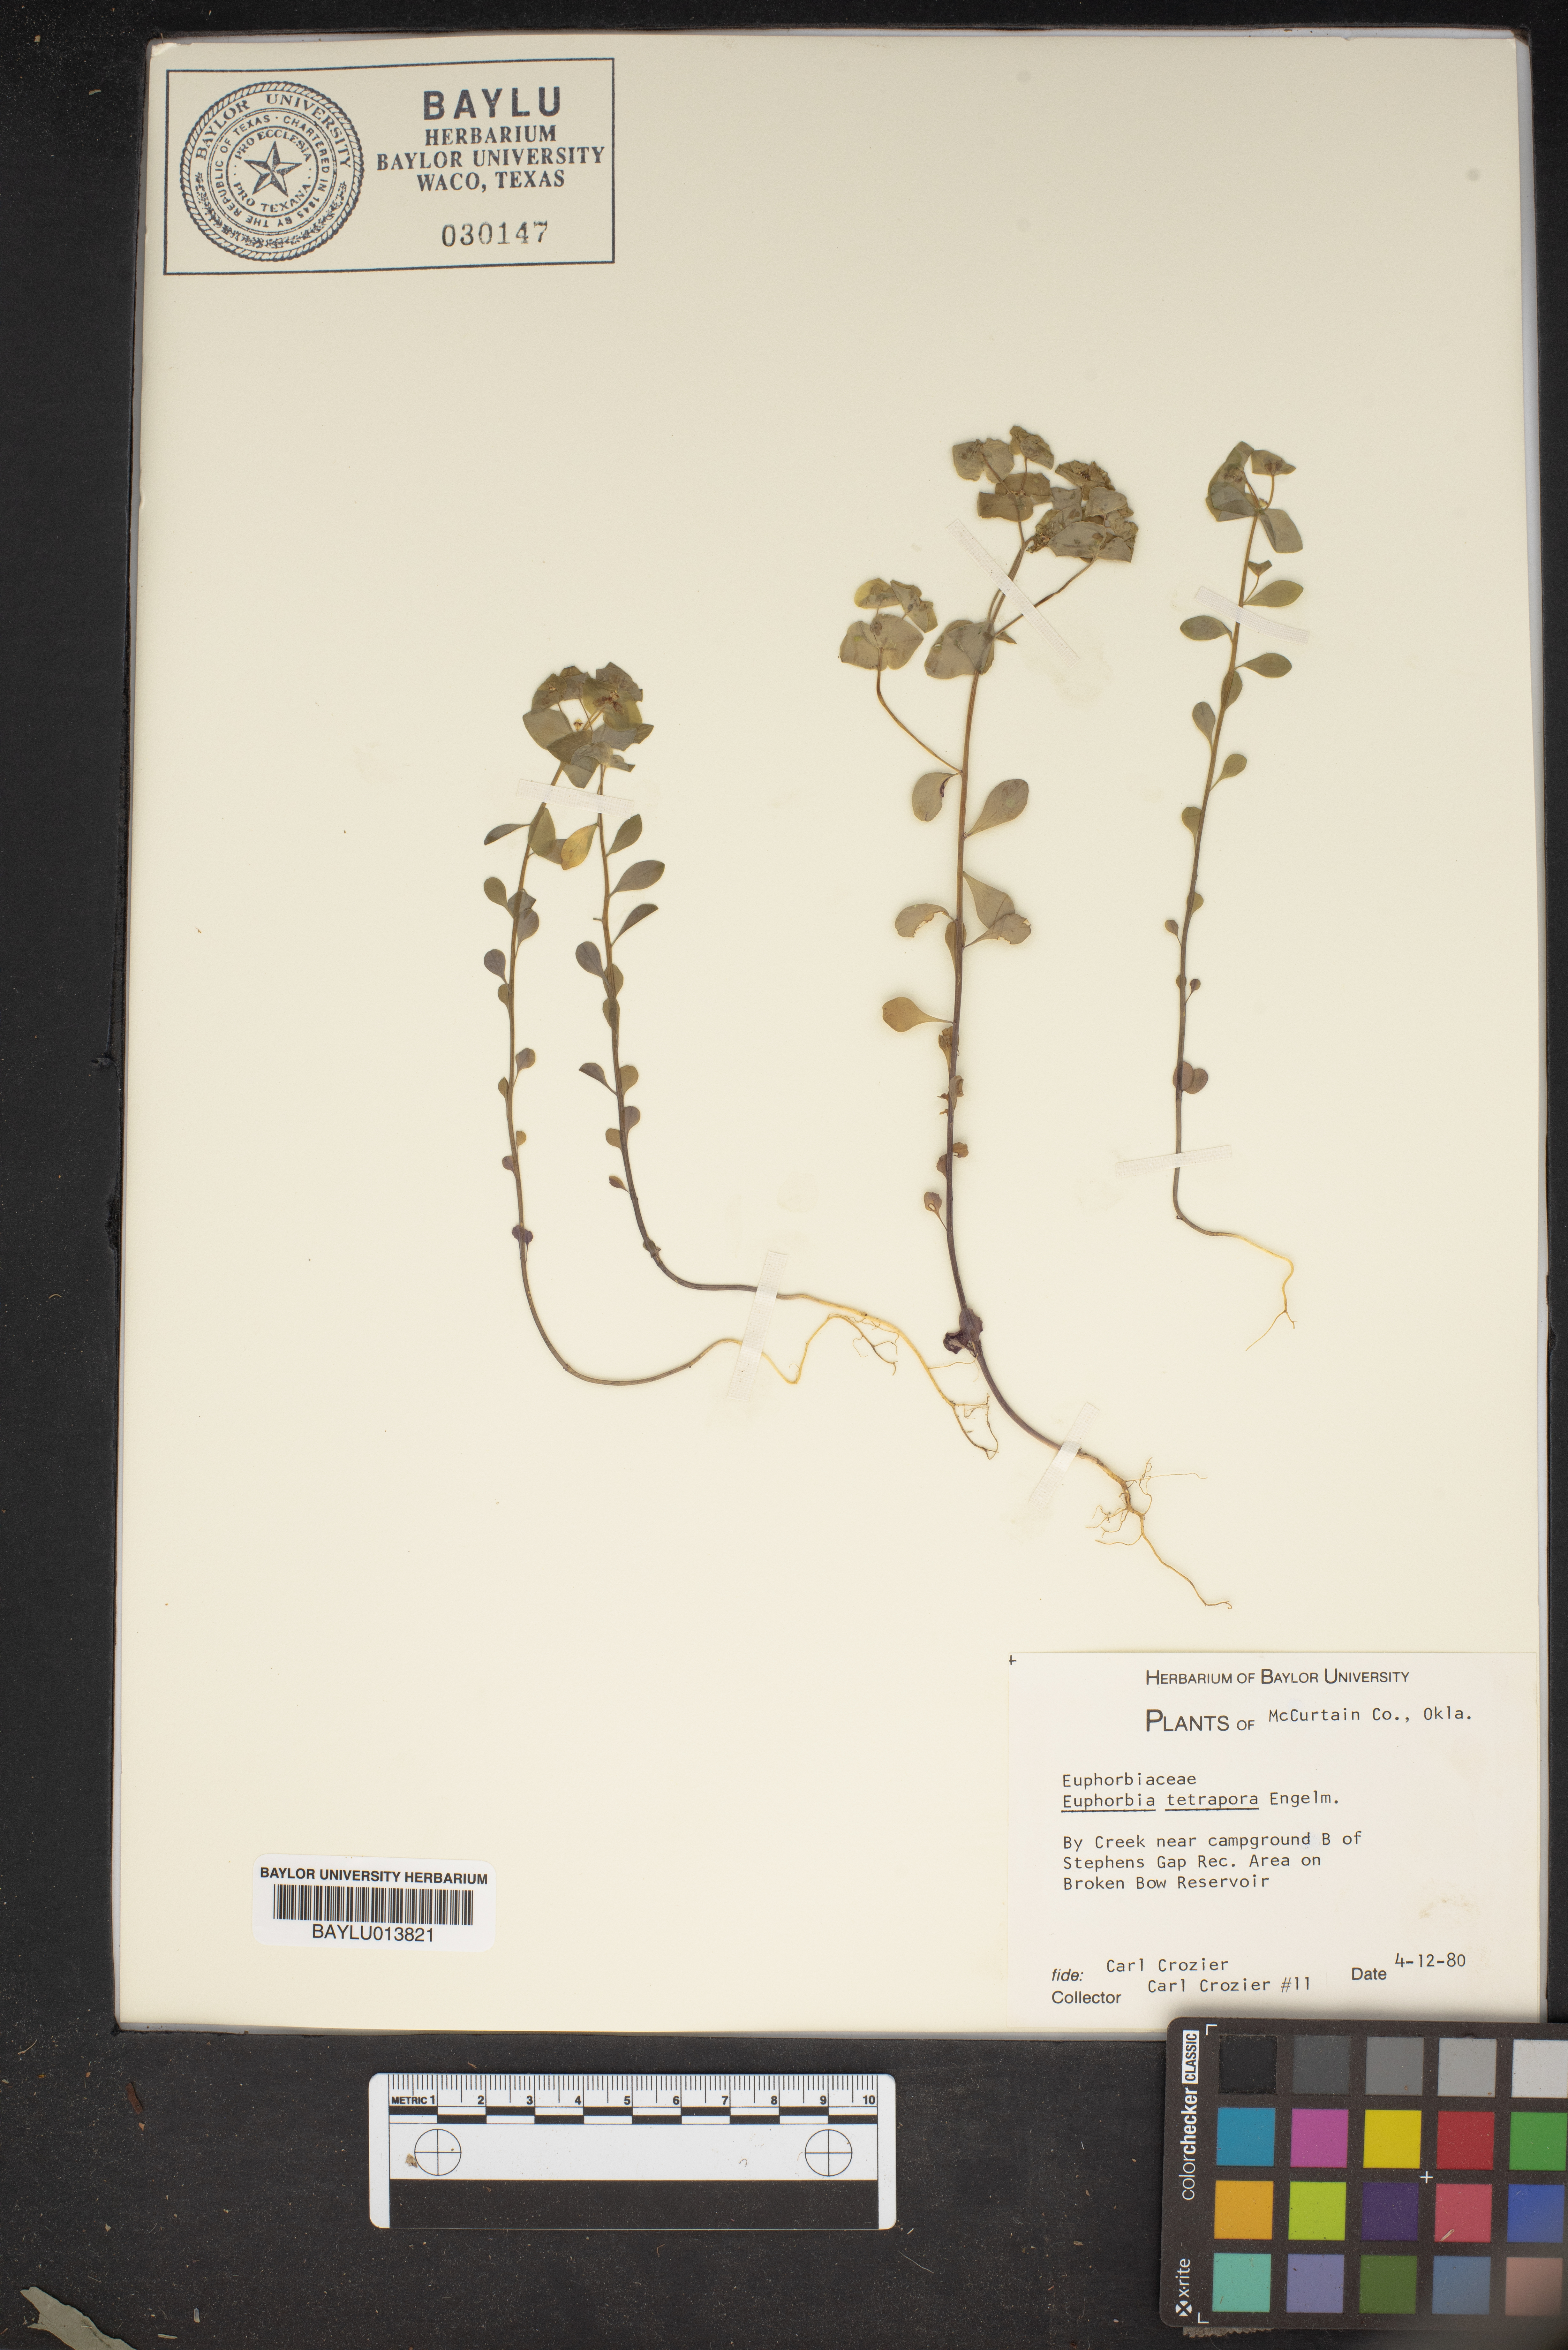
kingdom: Plantae
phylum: Tracheophyta
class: Magnoliopsida
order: Malpighiales
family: Euphorbiaceae
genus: Euphorbia
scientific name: Euphorbia tetrapora
